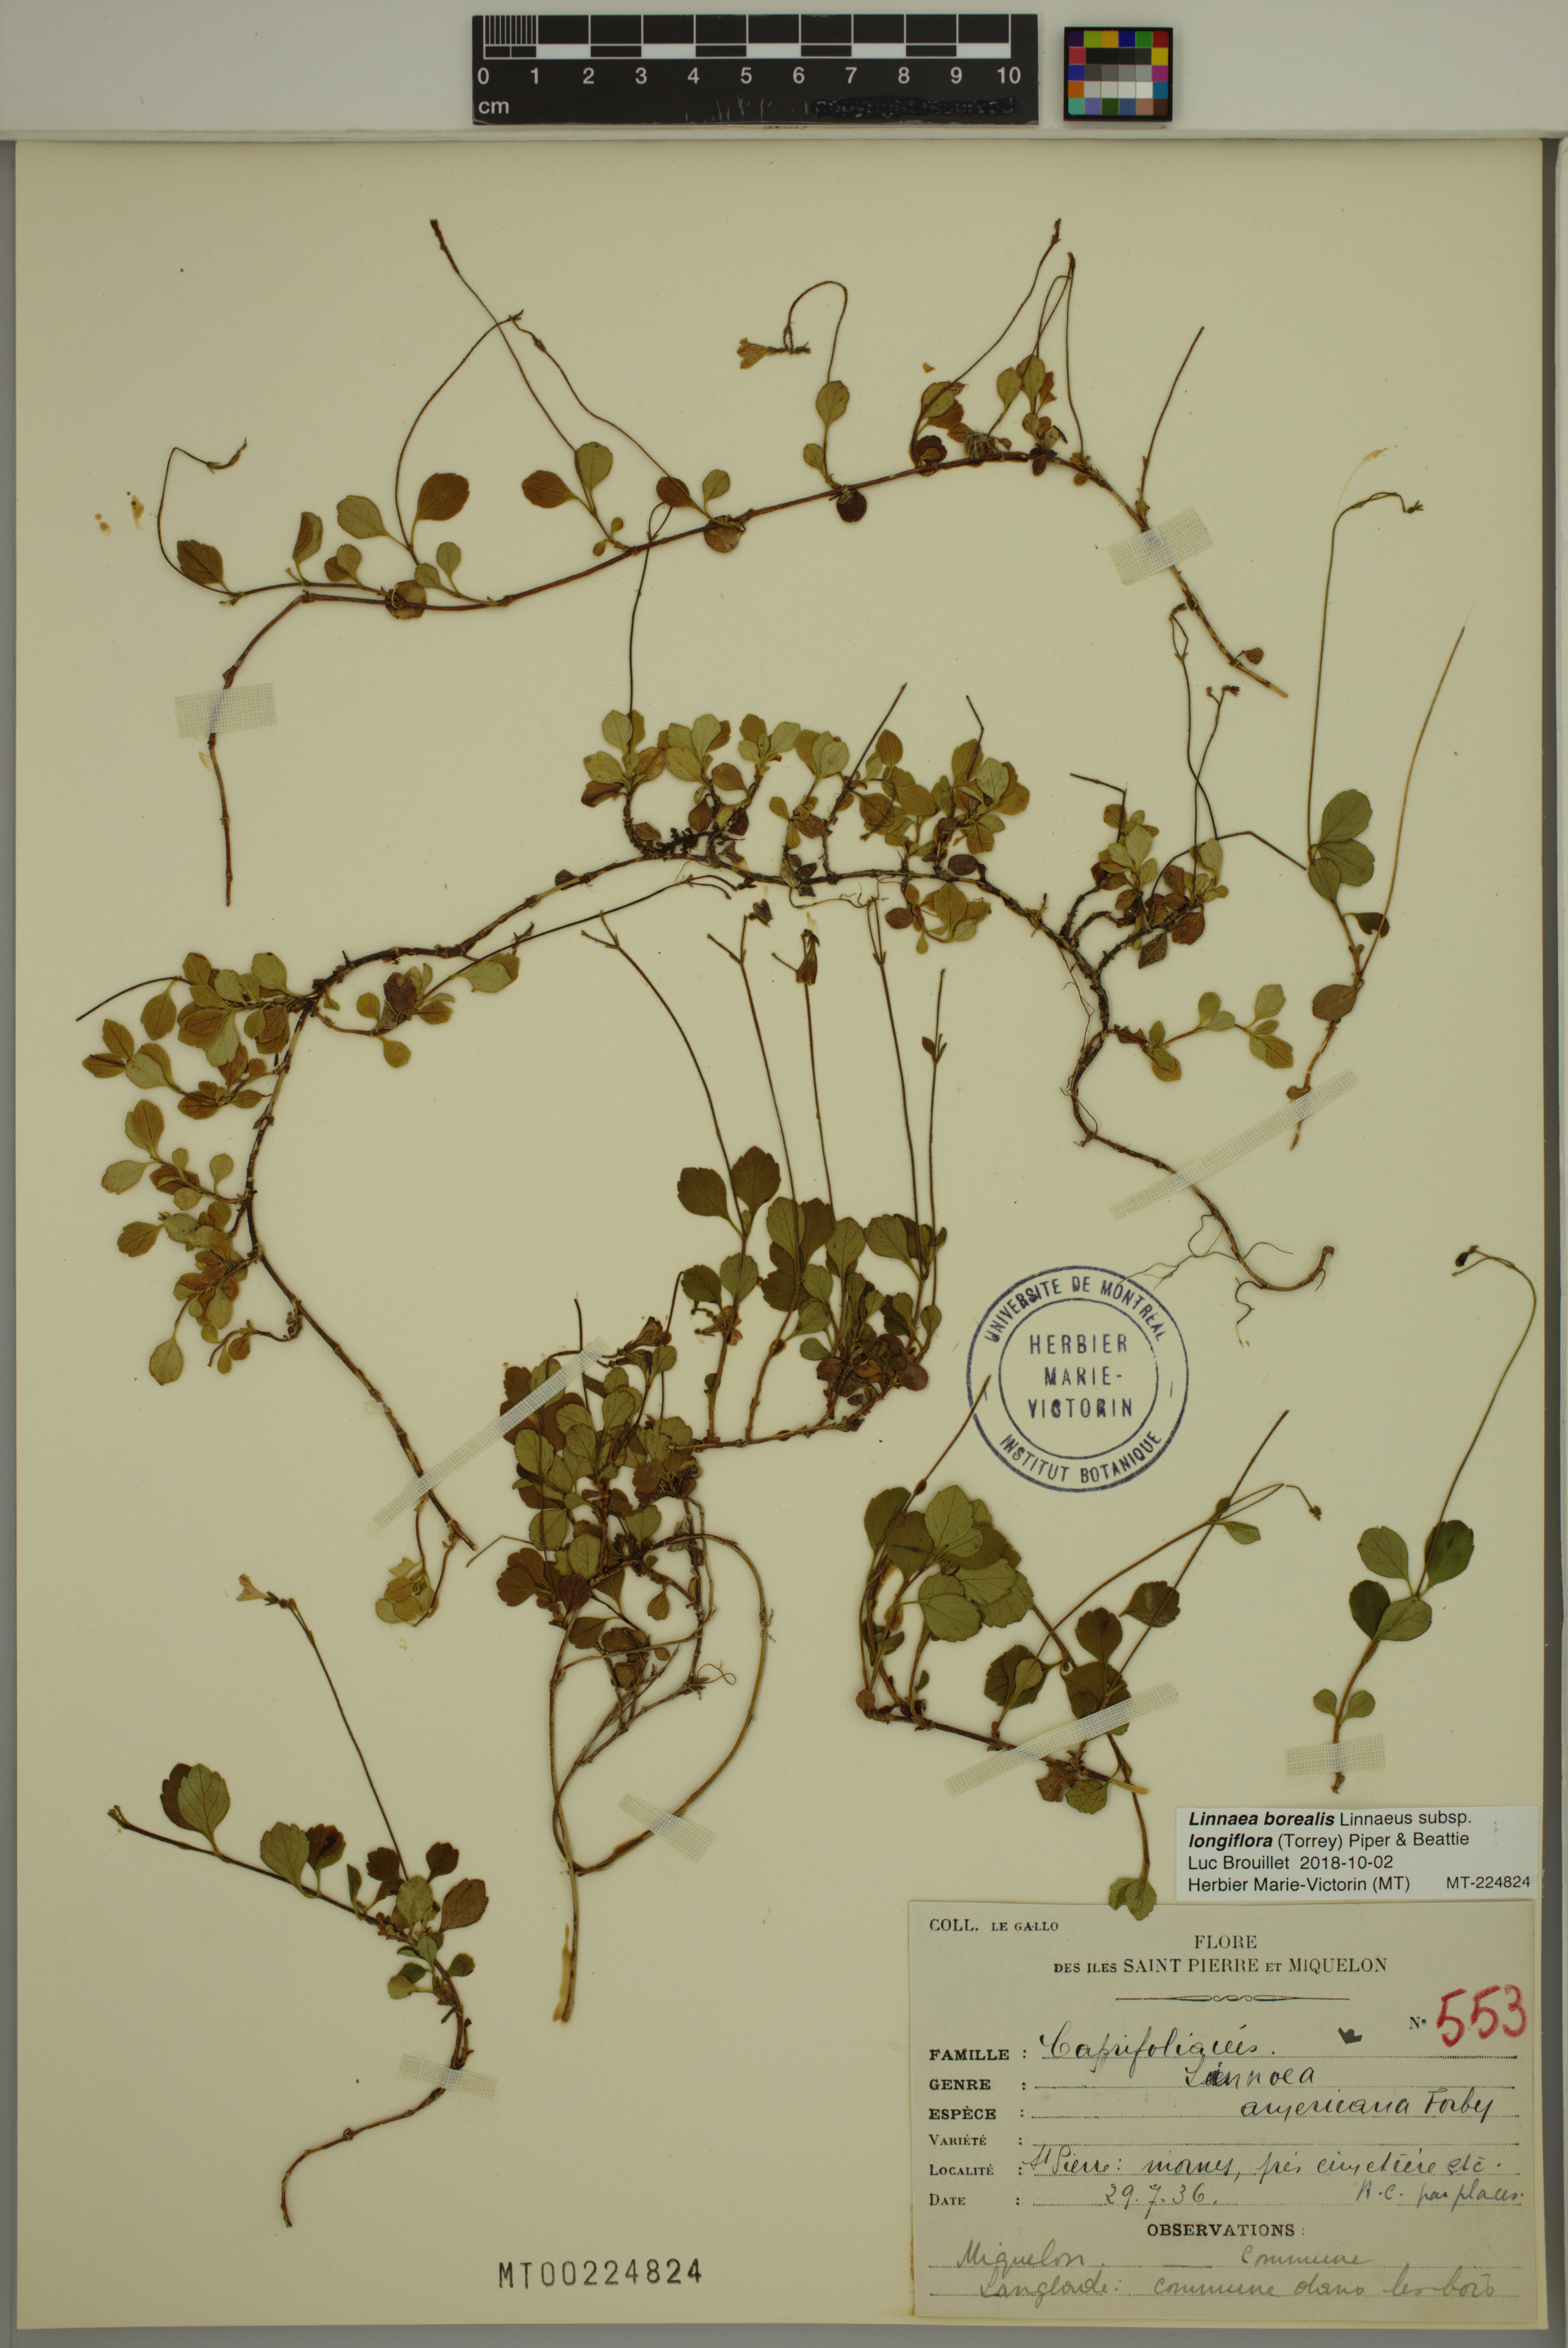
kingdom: Plantae
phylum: Tracheophyta
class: Magnoliopsida
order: Dipsacales
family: Caprifoliaceae
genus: Linnaea
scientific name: Linnaea borealis
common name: Twinflower
